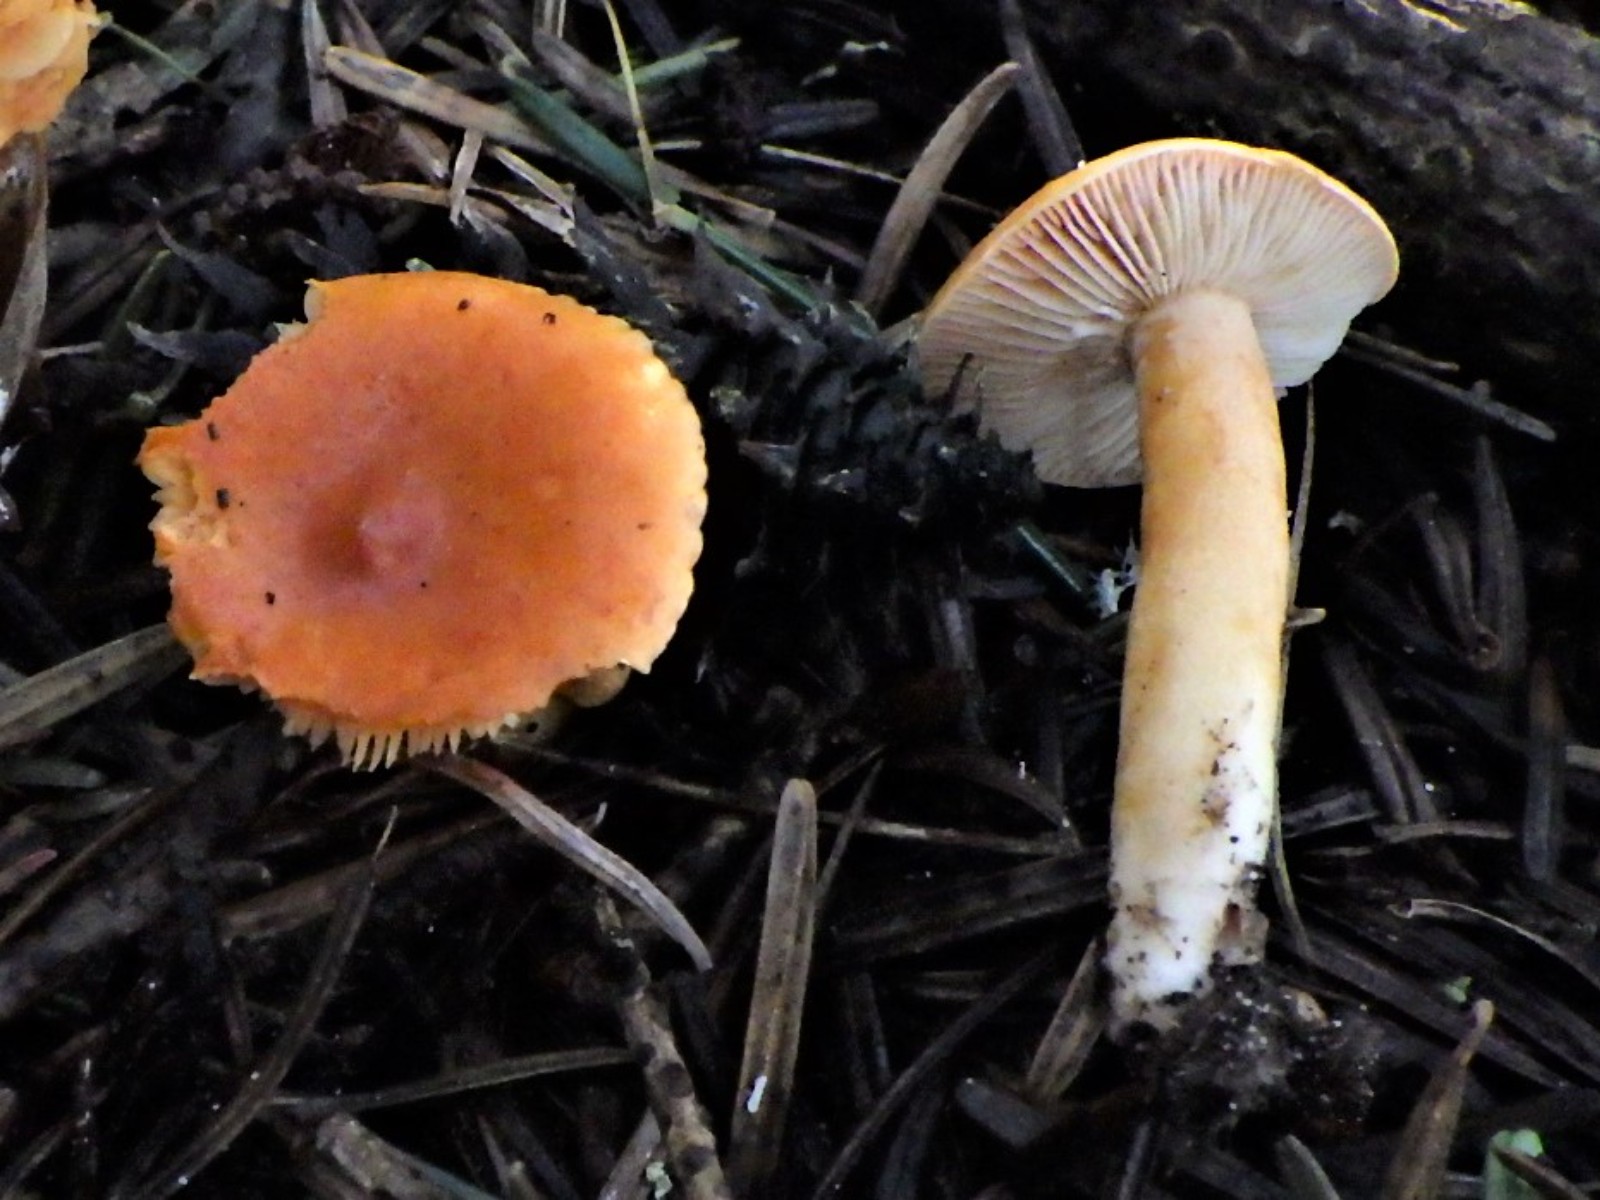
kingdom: Fungi
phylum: Basidiomycota
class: Agaricomycetes
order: Russulales
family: Russulaceae
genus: Lactarius
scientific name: Lactarius aurantiacus
